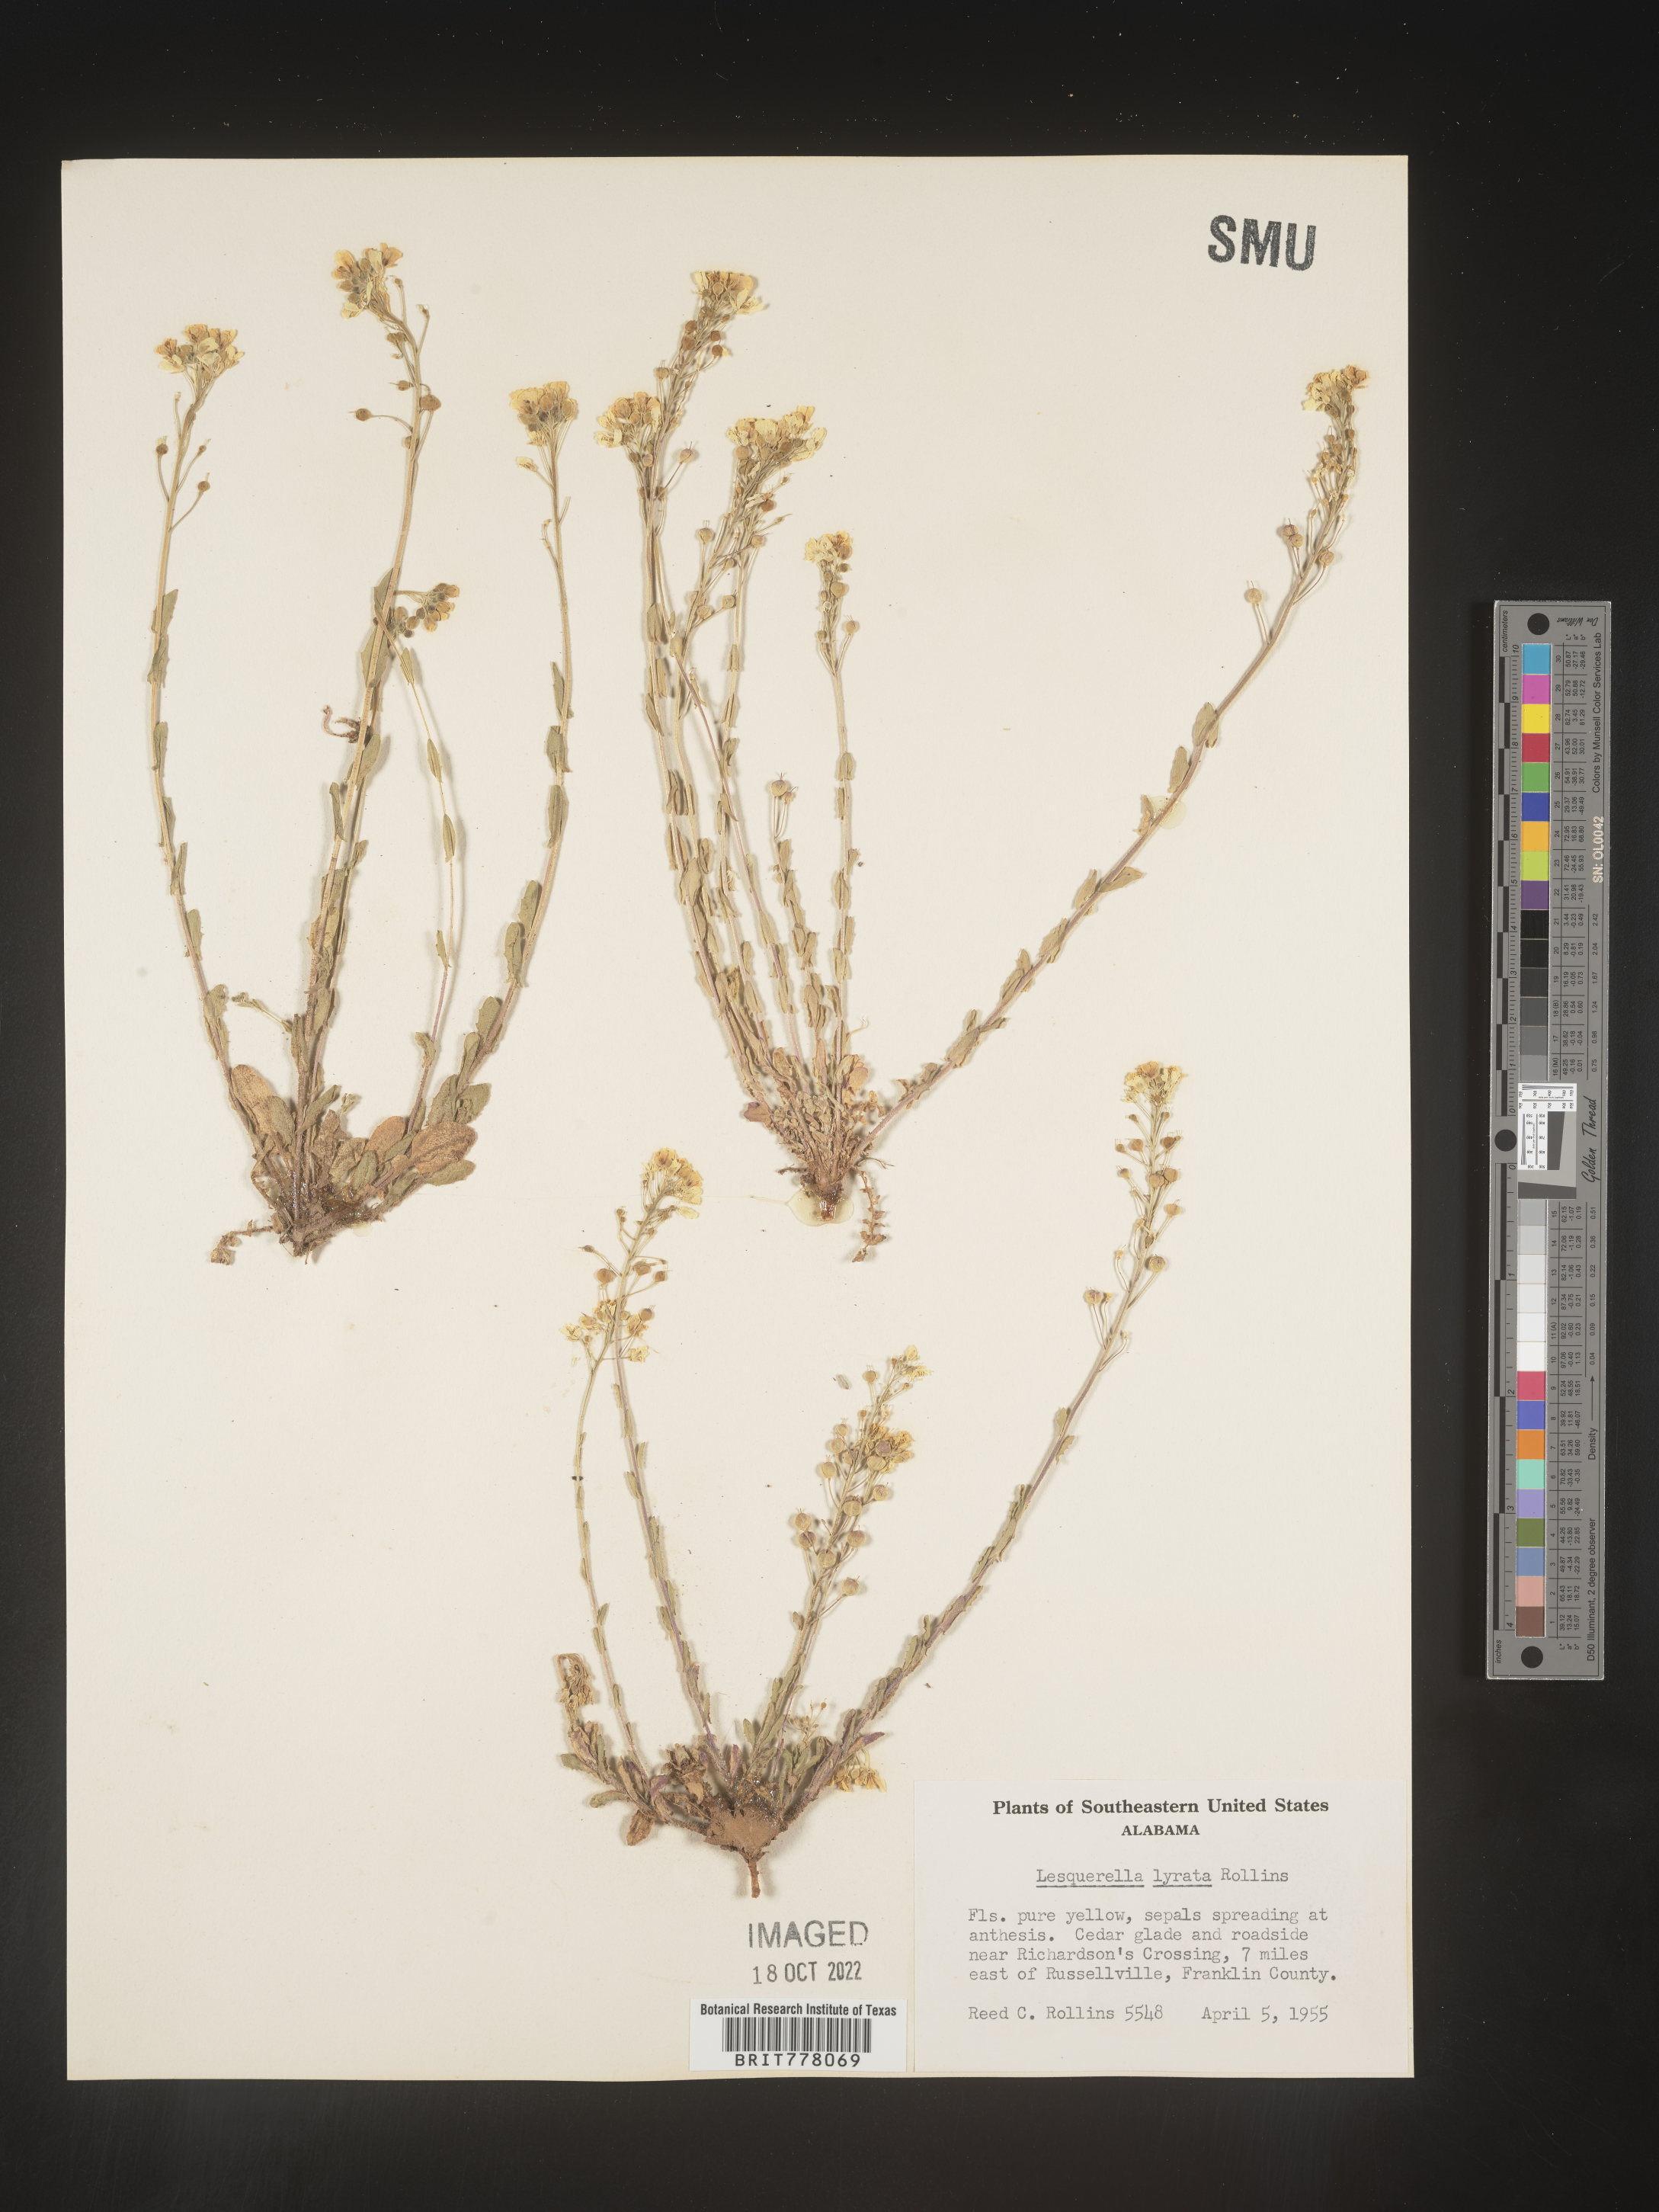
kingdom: Chromista
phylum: Cercozoa
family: Psammonobiotidae
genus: Lesquerella
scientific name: Lesquerella
